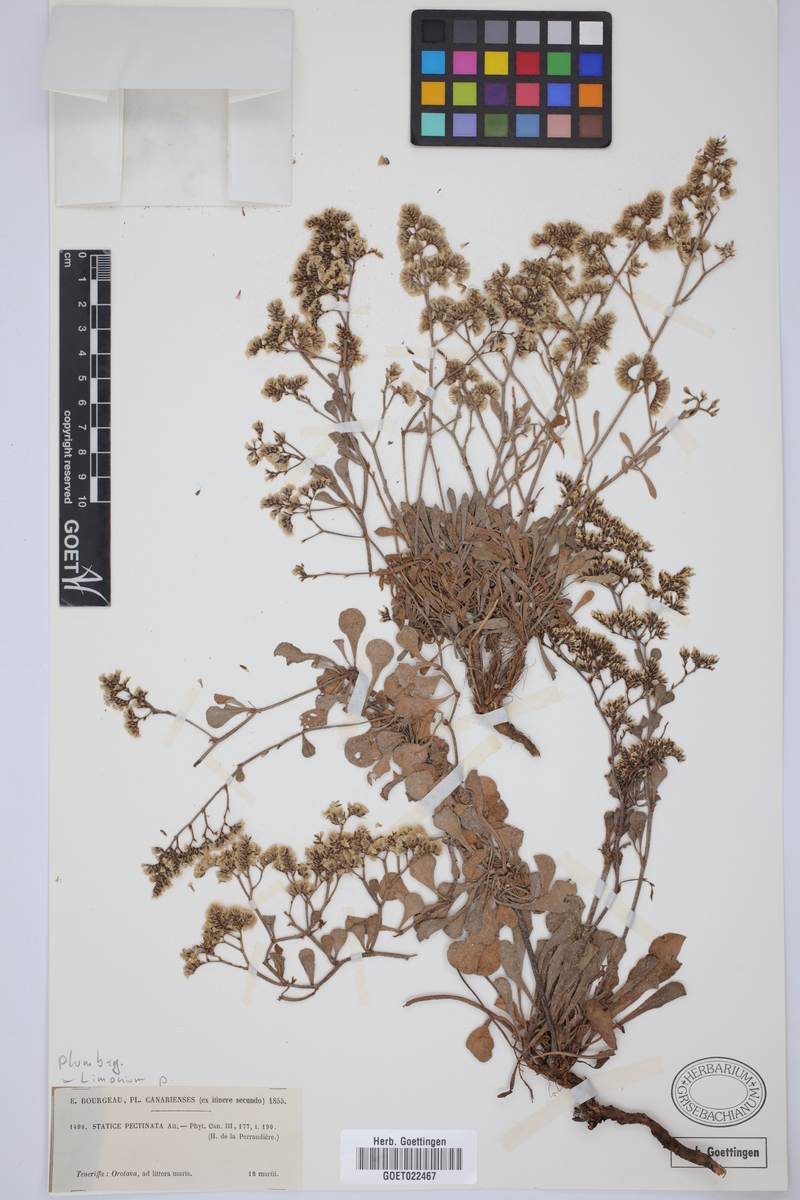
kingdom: Plantae
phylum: Tracheophyta
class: Magnoliopsida
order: Caryophyllales
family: Plumbaginaceae
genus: Limonium
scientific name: Limonium pectinatum
